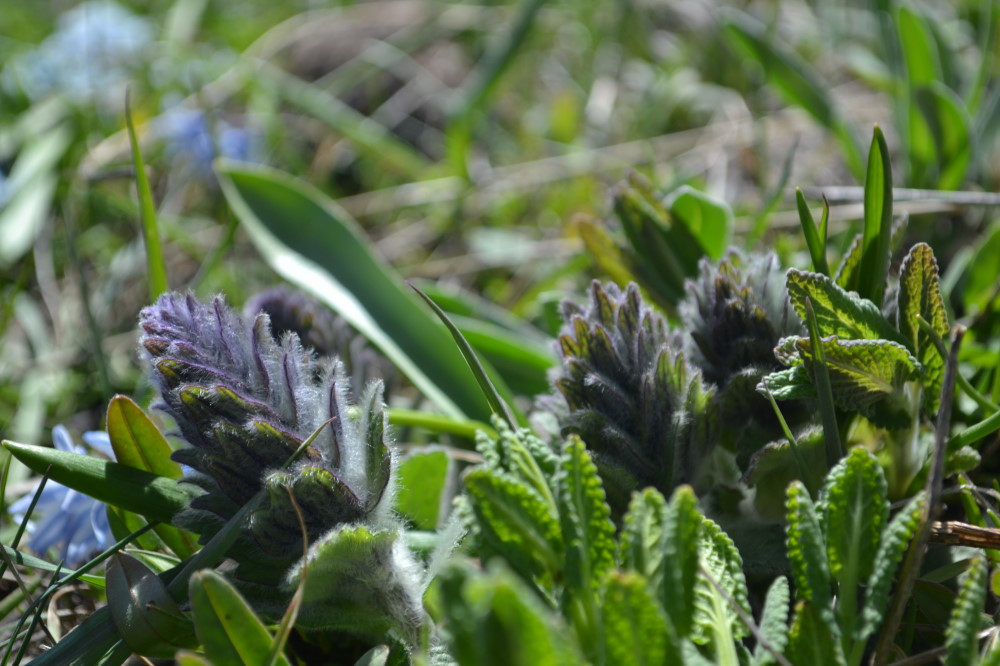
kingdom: Plantae
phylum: Tracheophyta
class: Magnoliopsida
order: Lamiales
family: Lamiaceae
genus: Ajuga
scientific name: Ajuga orientalis
